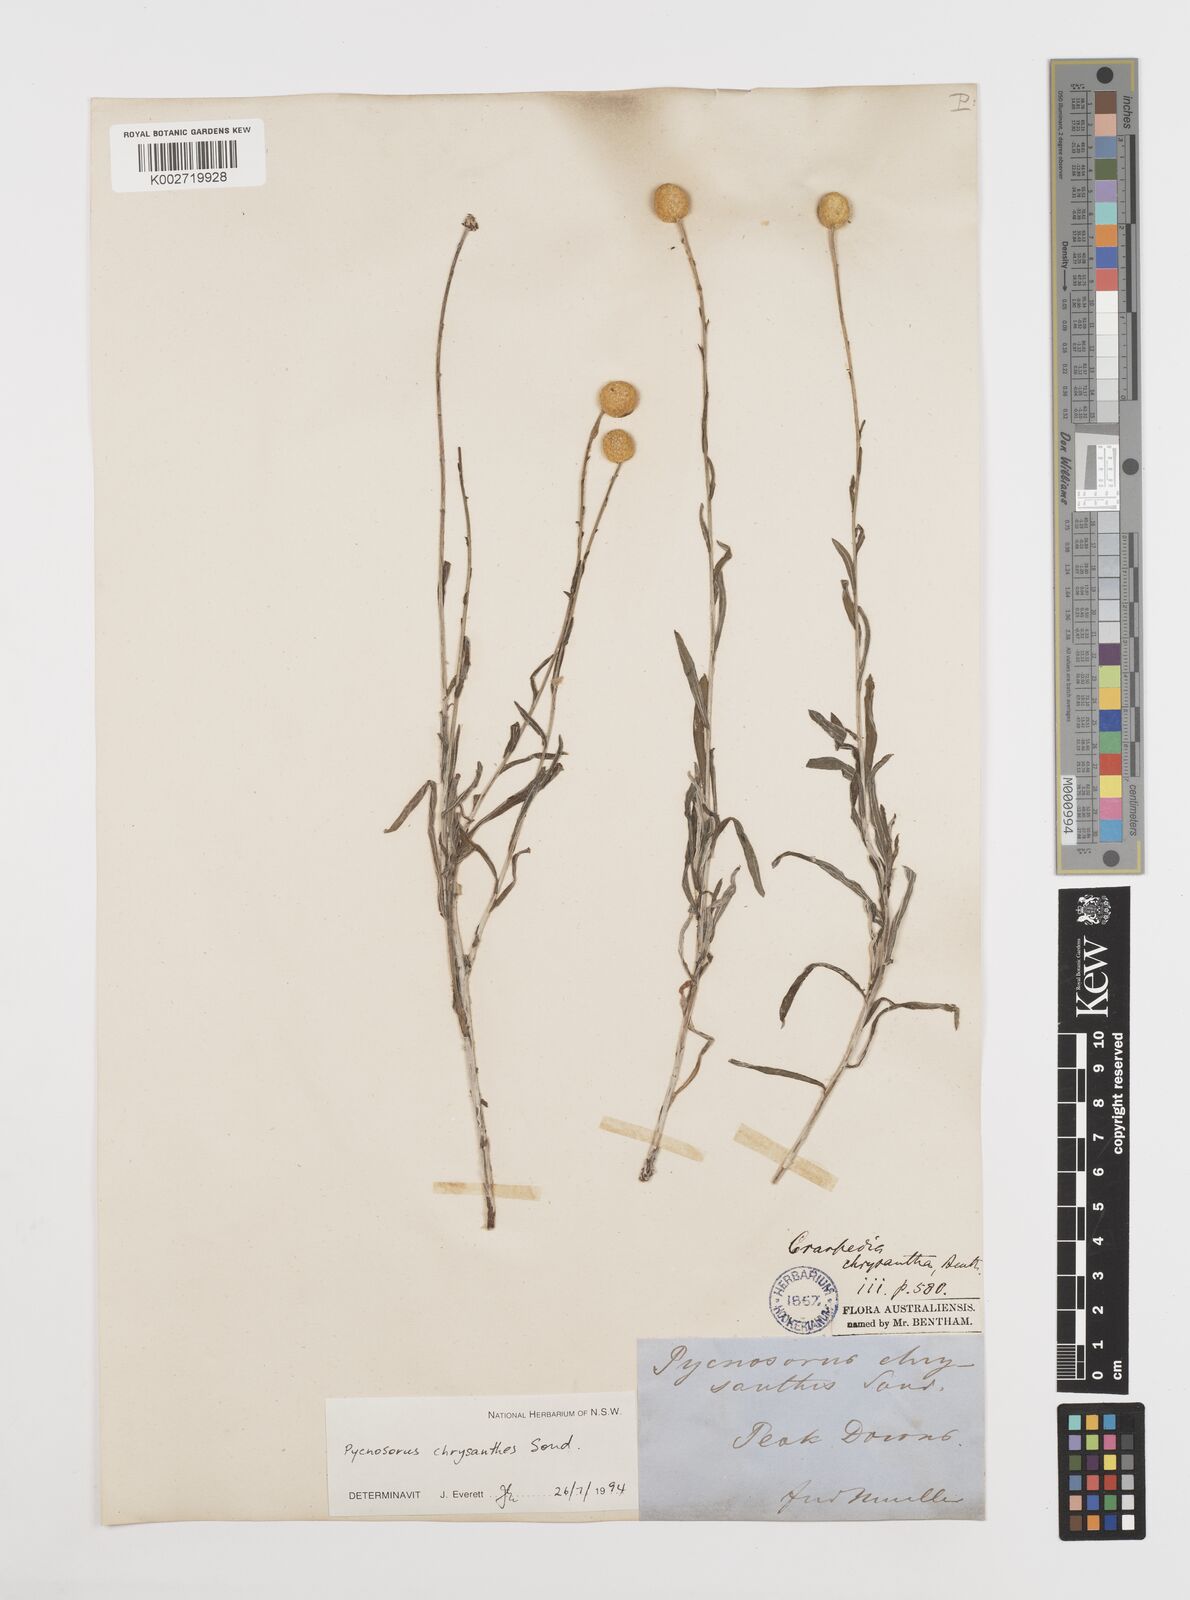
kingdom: Plantae
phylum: Tracheophyta
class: Magnoliopsida
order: Asterales
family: Asteraceae
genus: Pycnosorus
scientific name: Pycnosorus chrysanthus
